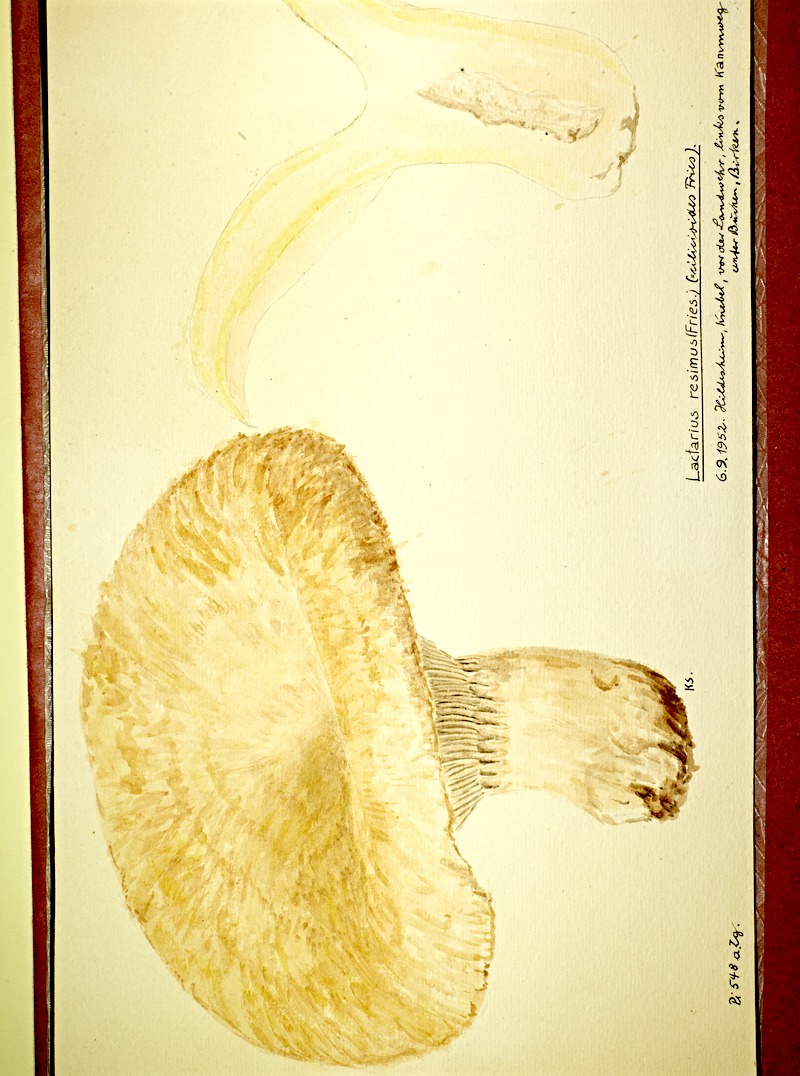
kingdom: Fungi
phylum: Basidiomycota
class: Agaricomycetes
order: Russulales
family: Russulaceae
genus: Lactarius
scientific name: Lactarius citriolens
